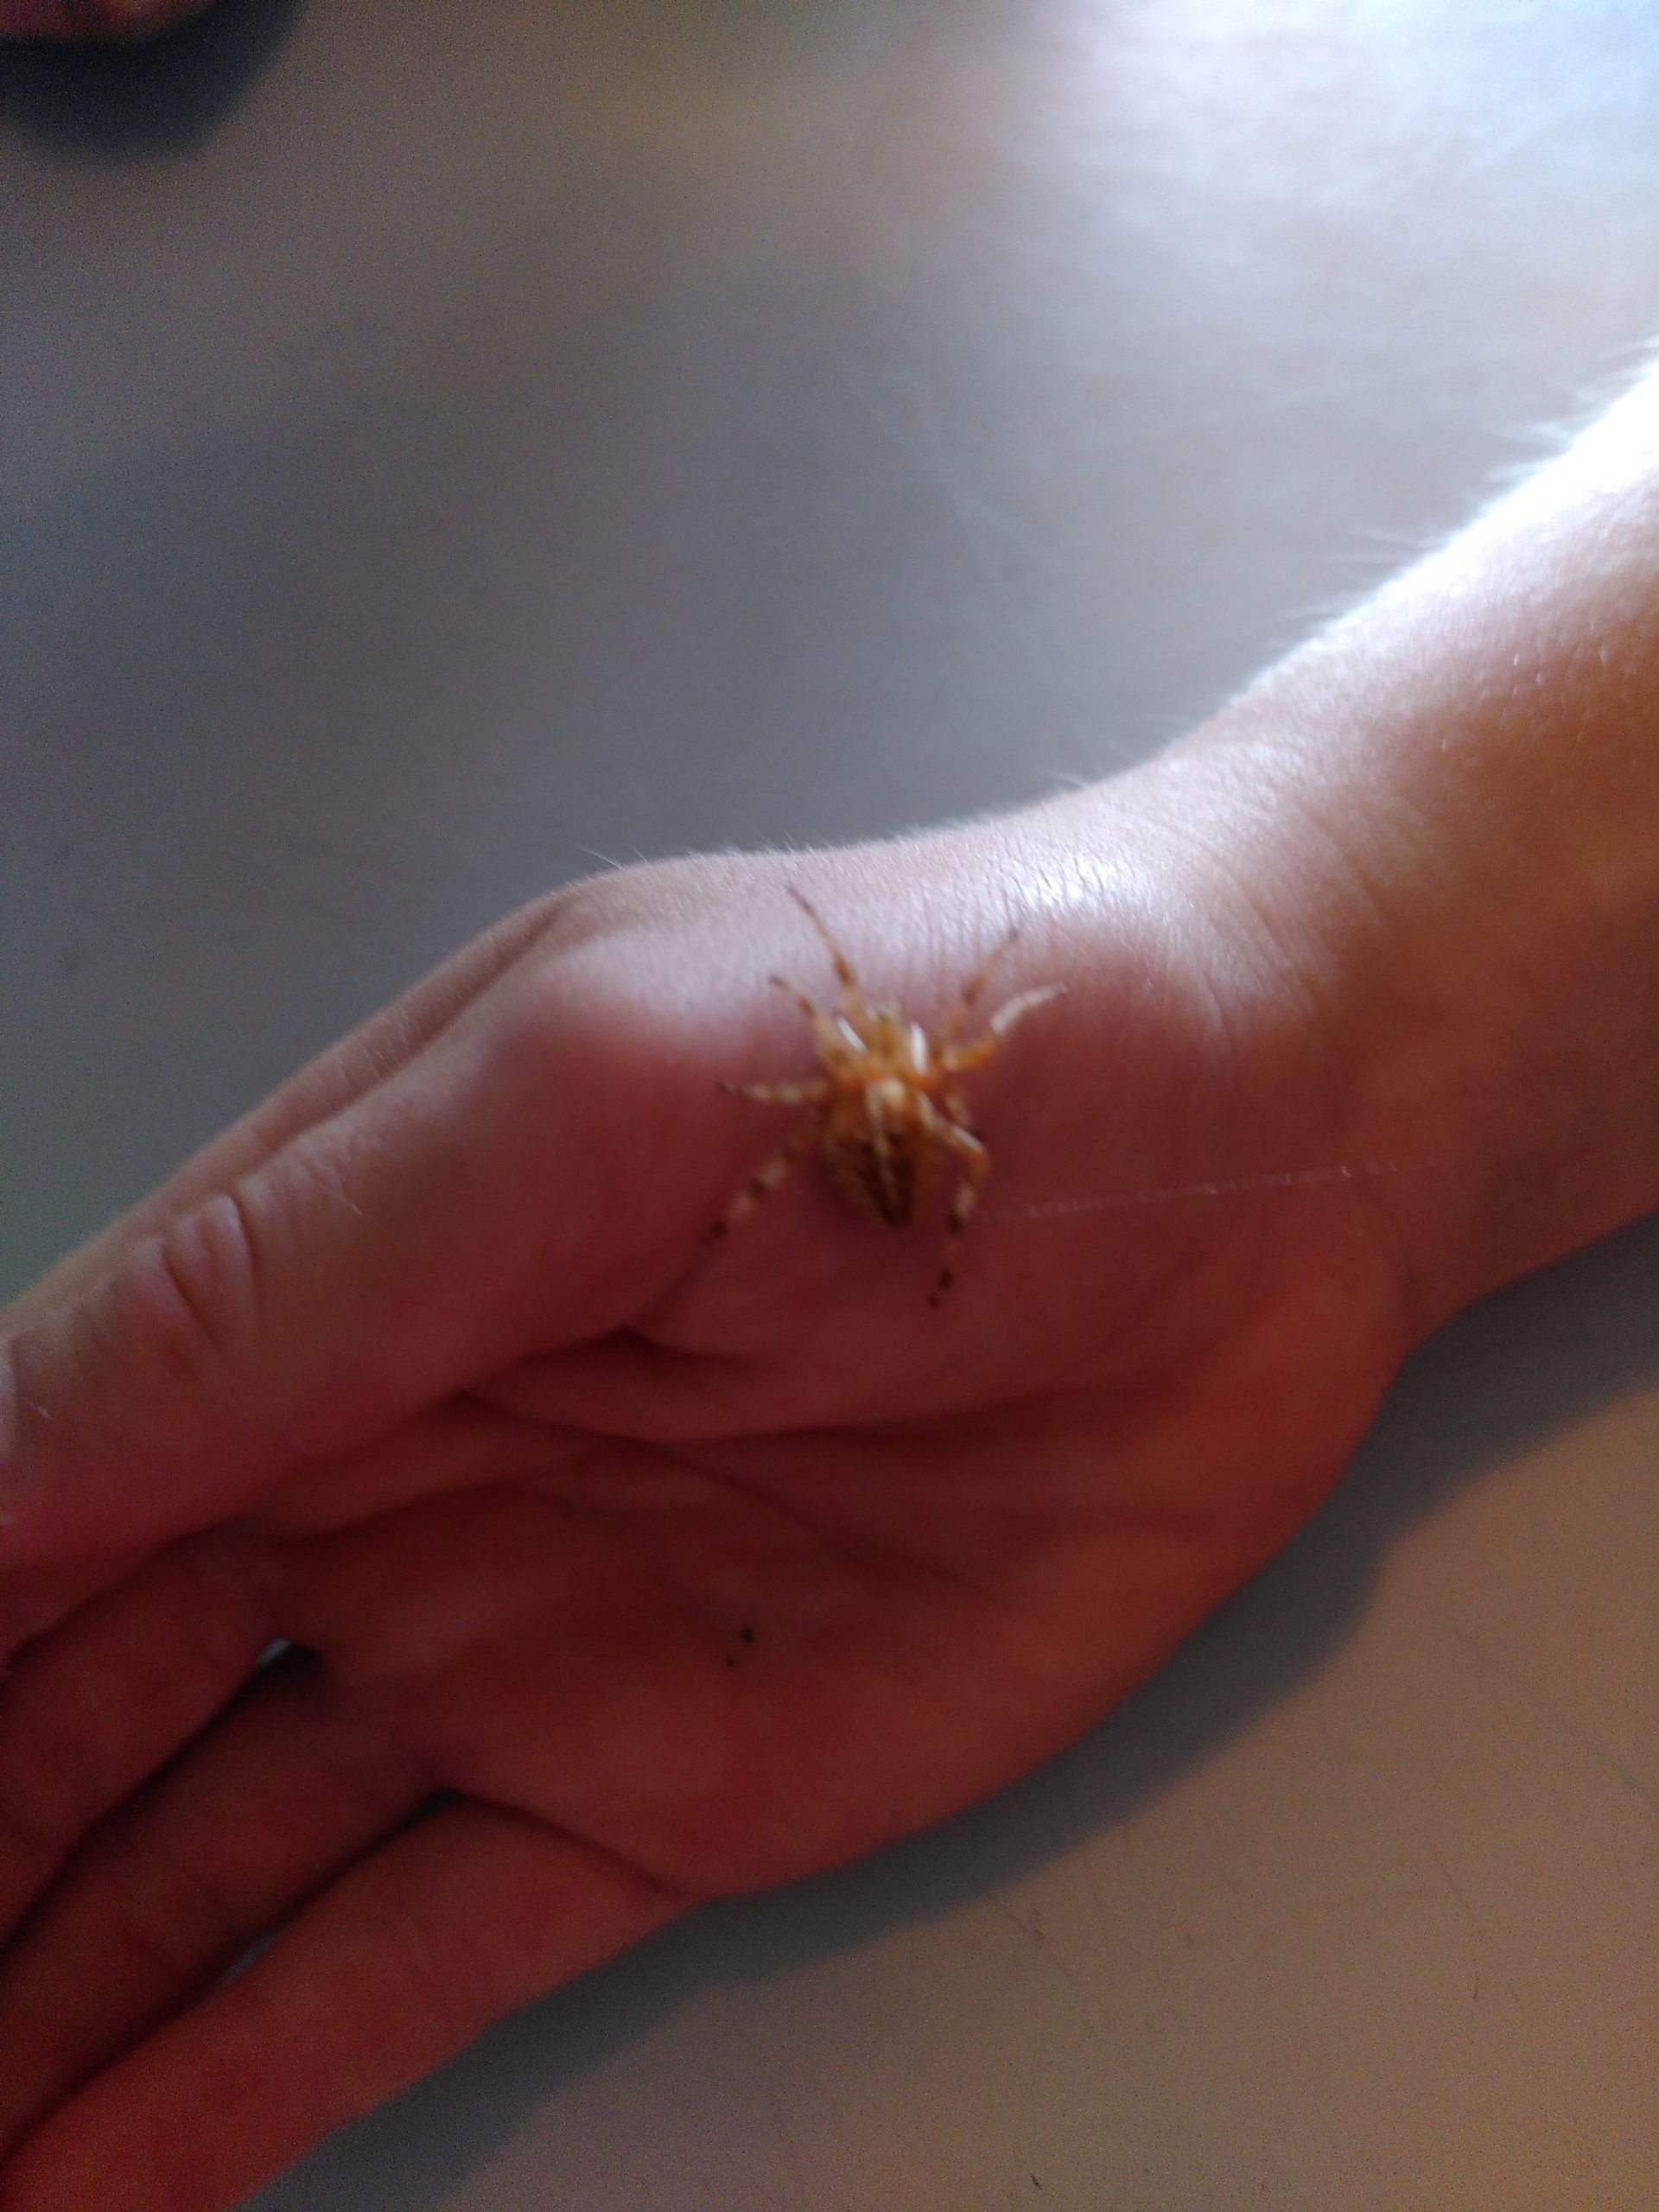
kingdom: Animalia
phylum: Arthropoda
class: Arachnida
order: Araneae
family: Araneidae
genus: Araneus
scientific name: Araneus diadematus
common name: Korsedderkop
